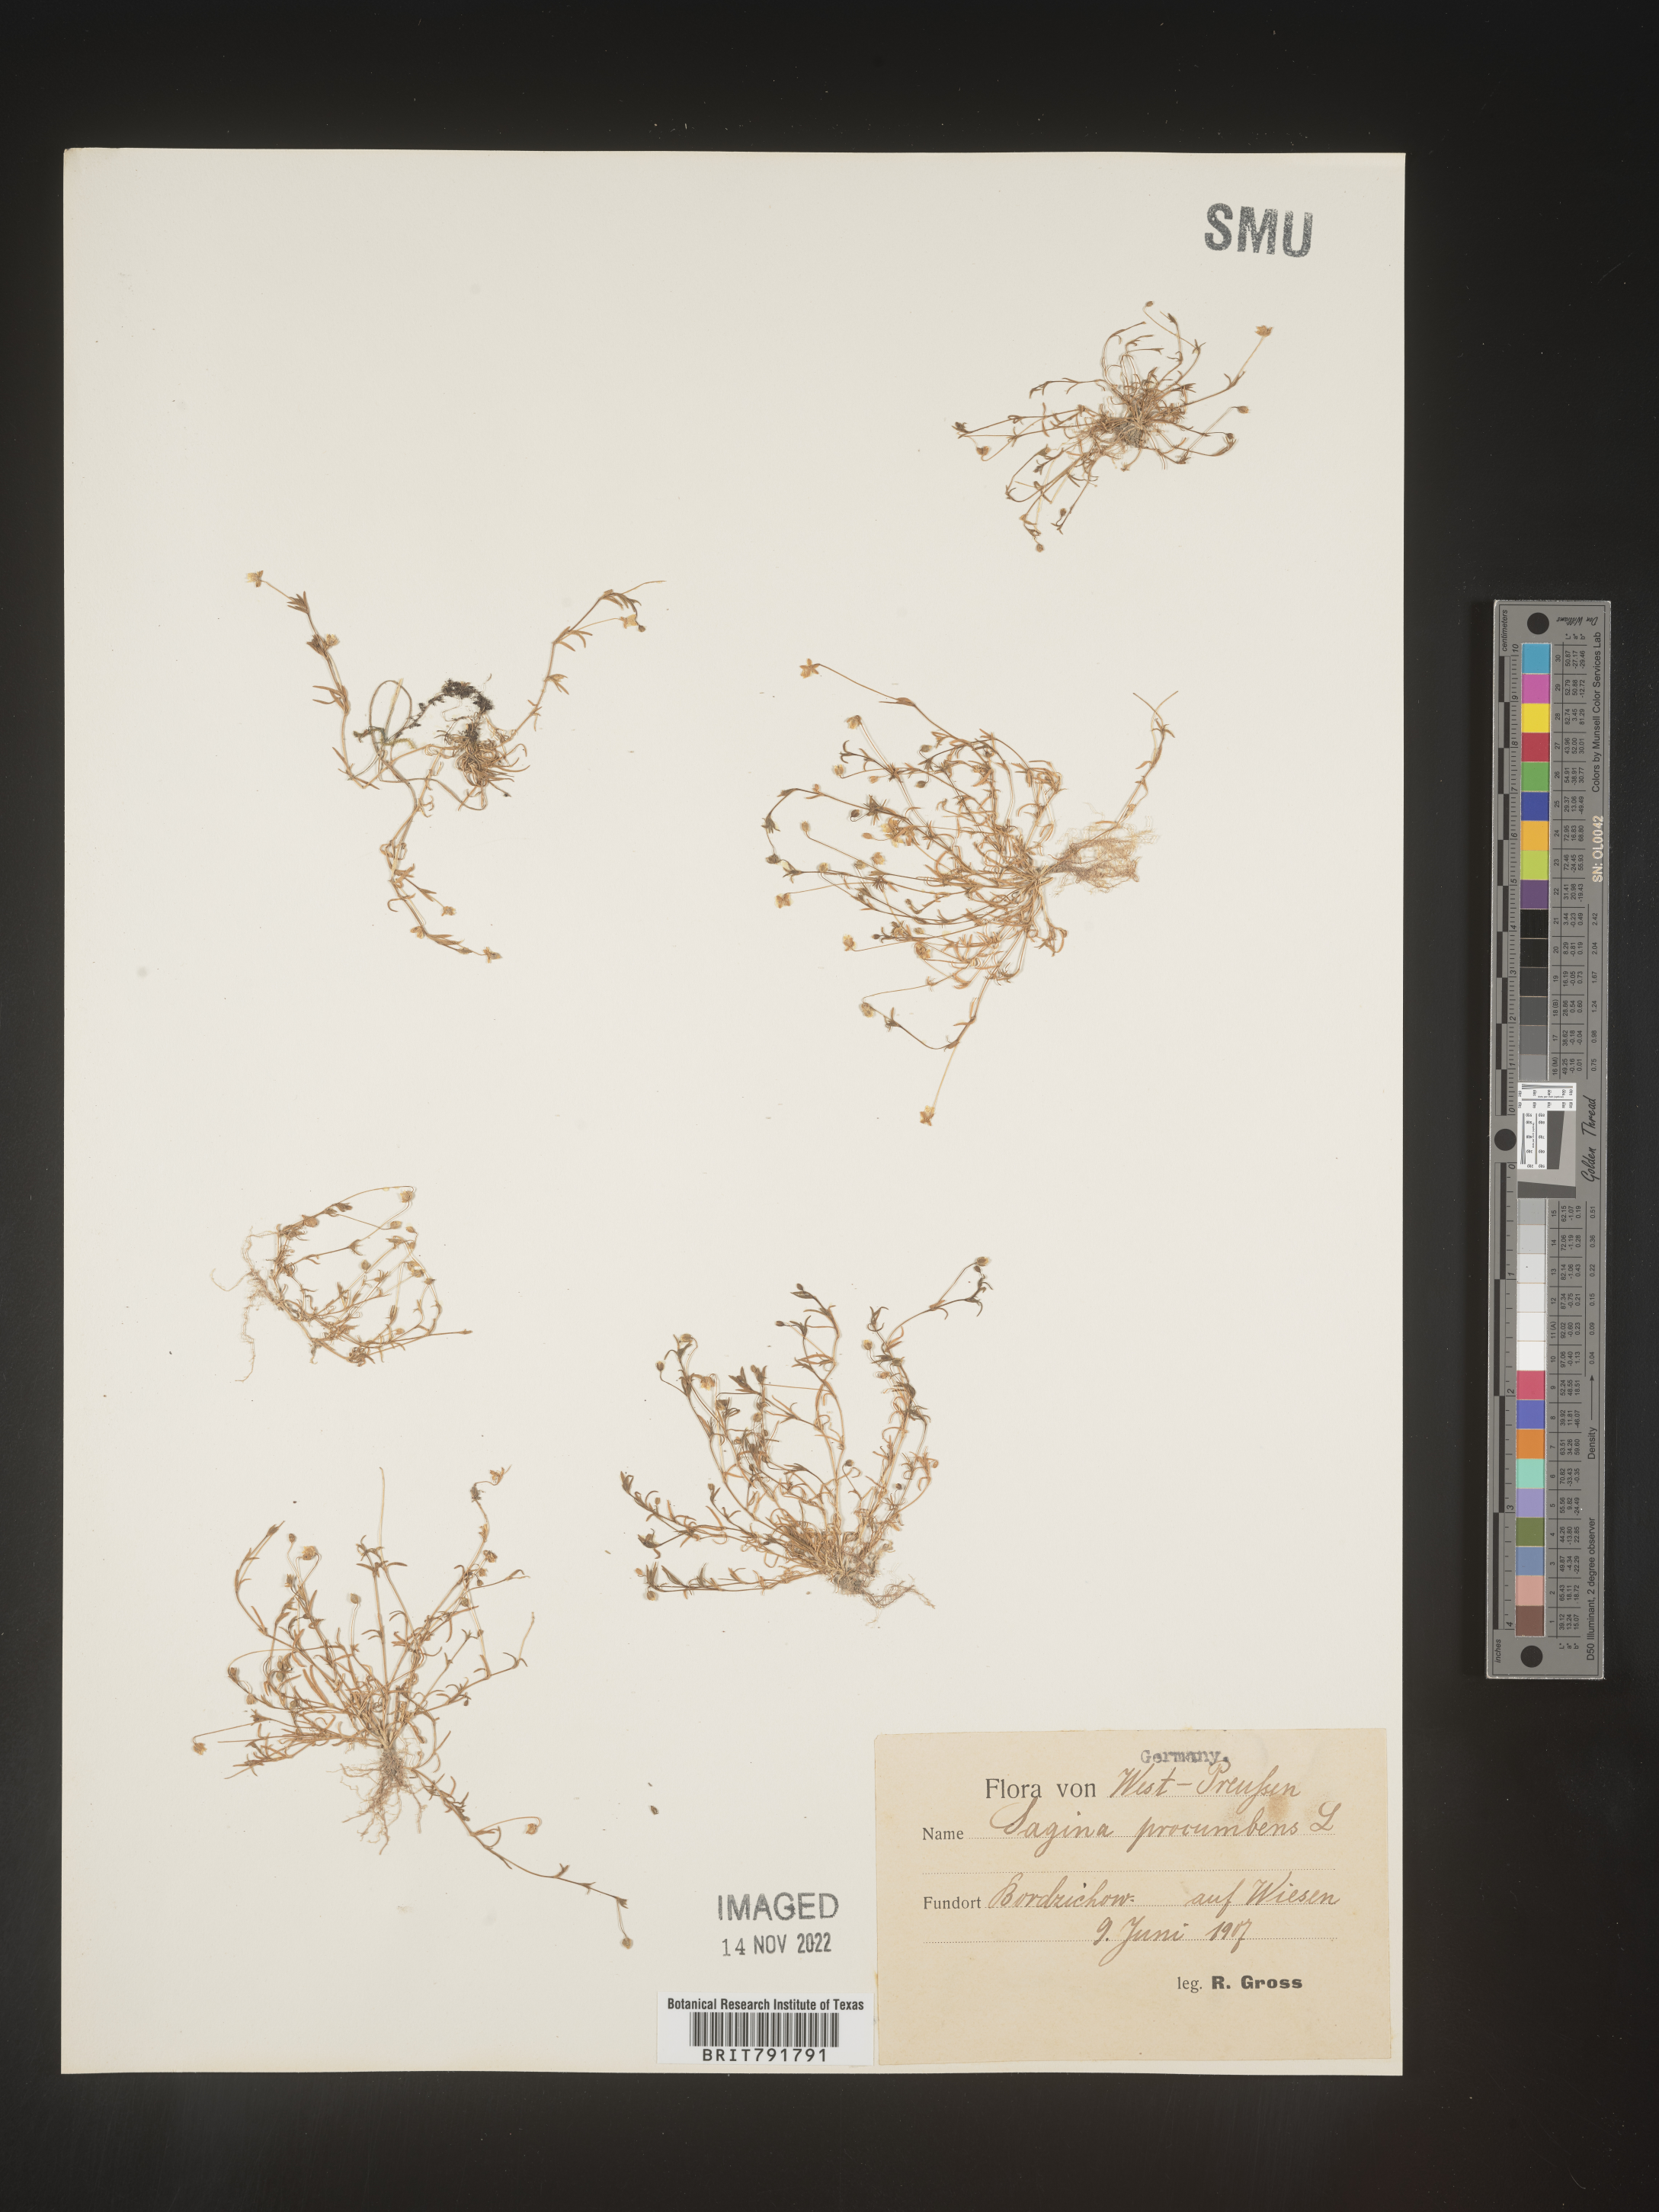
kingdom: Plantae
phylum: Tracheophyta
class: Magnoliopsida
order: Caryophyllales
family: Caryophyllaceae
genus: Sagina
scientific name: Sagina
